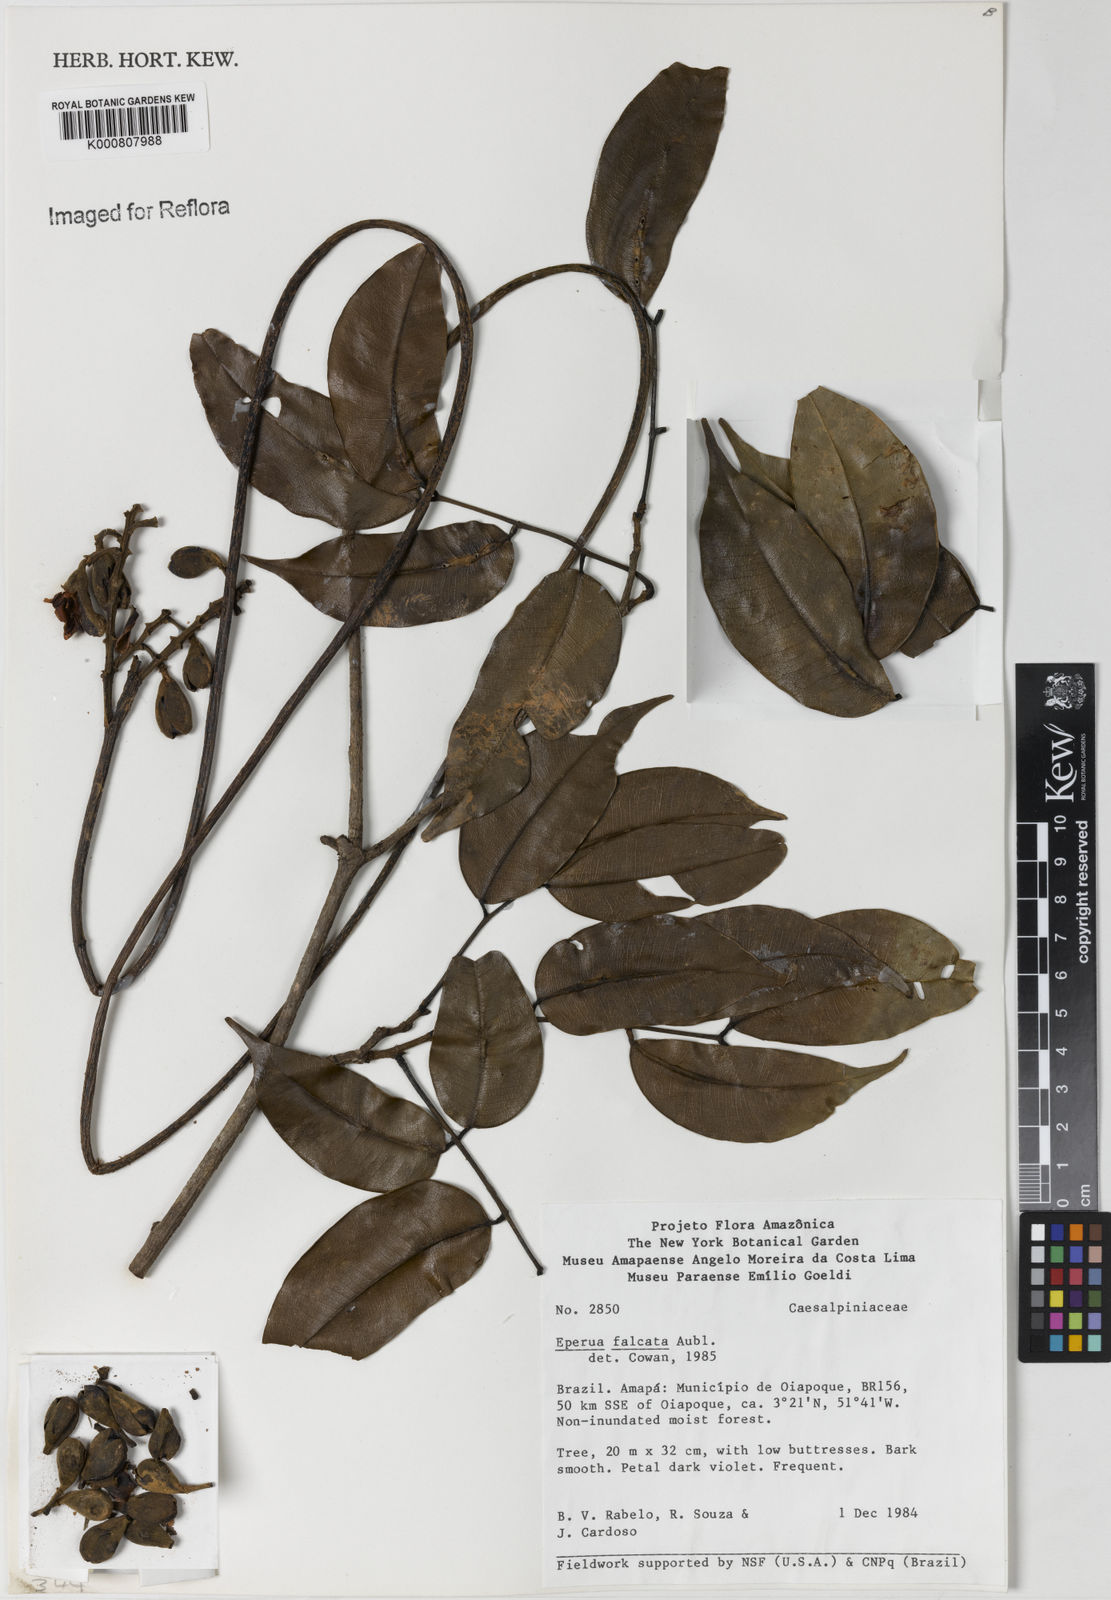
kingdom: Plantae
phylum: Tracheophyta
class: Magnoliopsida
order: Fabales
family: Fabaceae
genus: Eperua
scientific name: Eperua falcata
